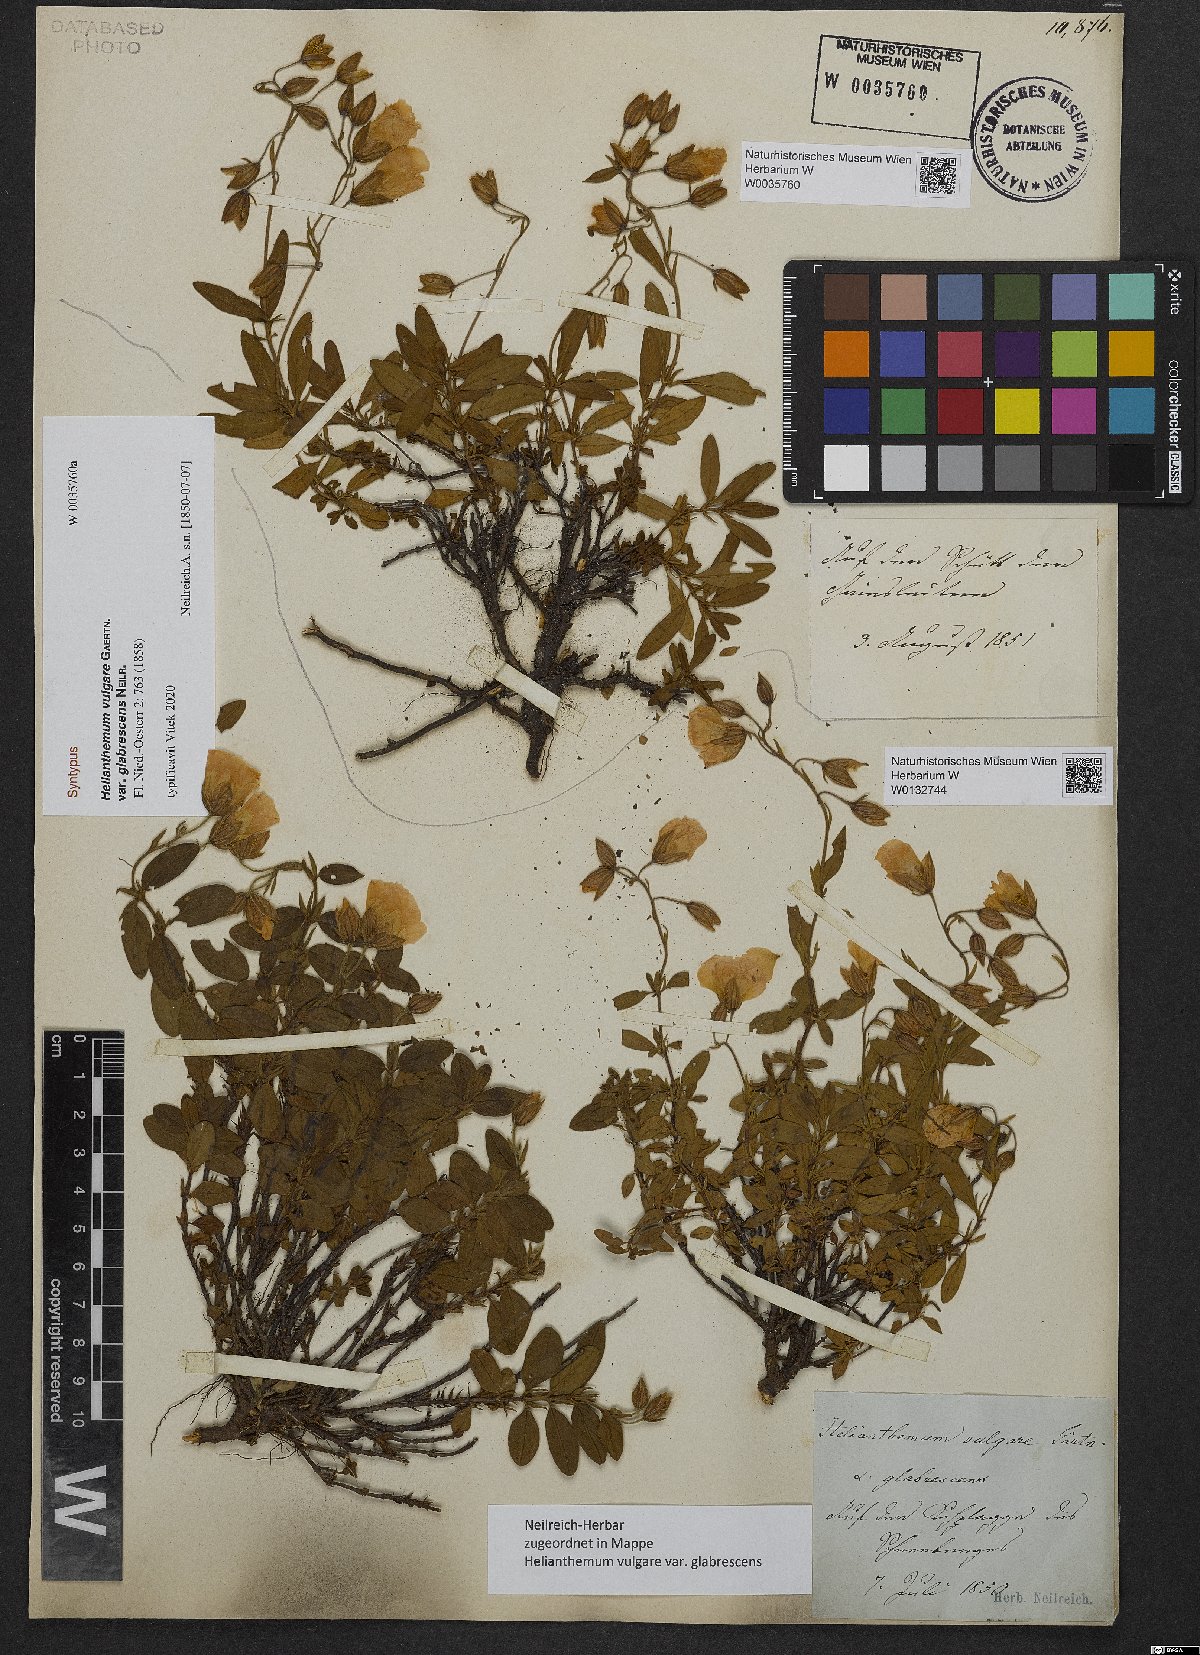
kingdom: Plantae
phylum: Tracheophyta
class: Magnoliopsida
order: Malvales
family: Cistaceae
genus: Helianthemum
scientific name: Helianthemum nummularium
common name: Common rock-rose
